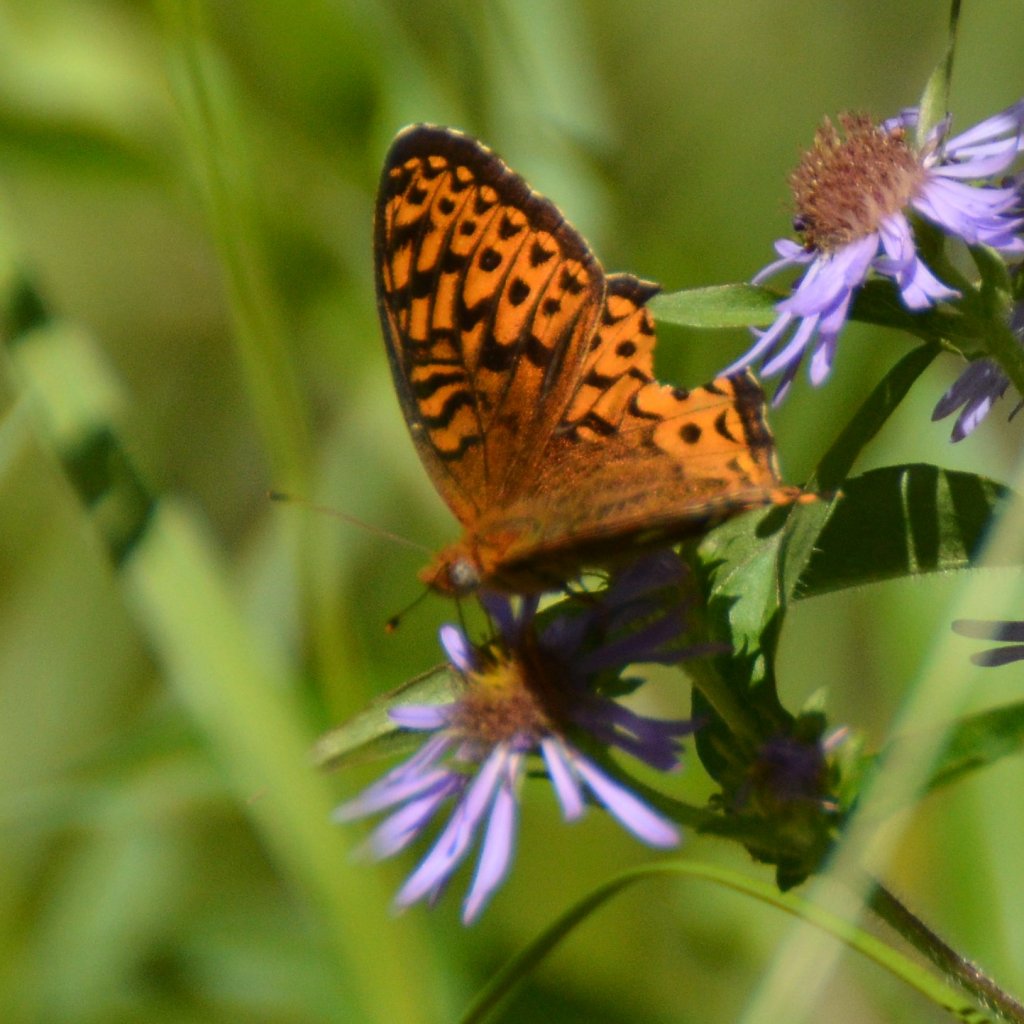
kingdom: Animalia
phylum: Arthropoda
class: Insecta
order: Lepidoptera
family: Nymphalidae
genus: Speyeria
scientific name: Speyeria atlantis
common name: Atlantis Fritillary
